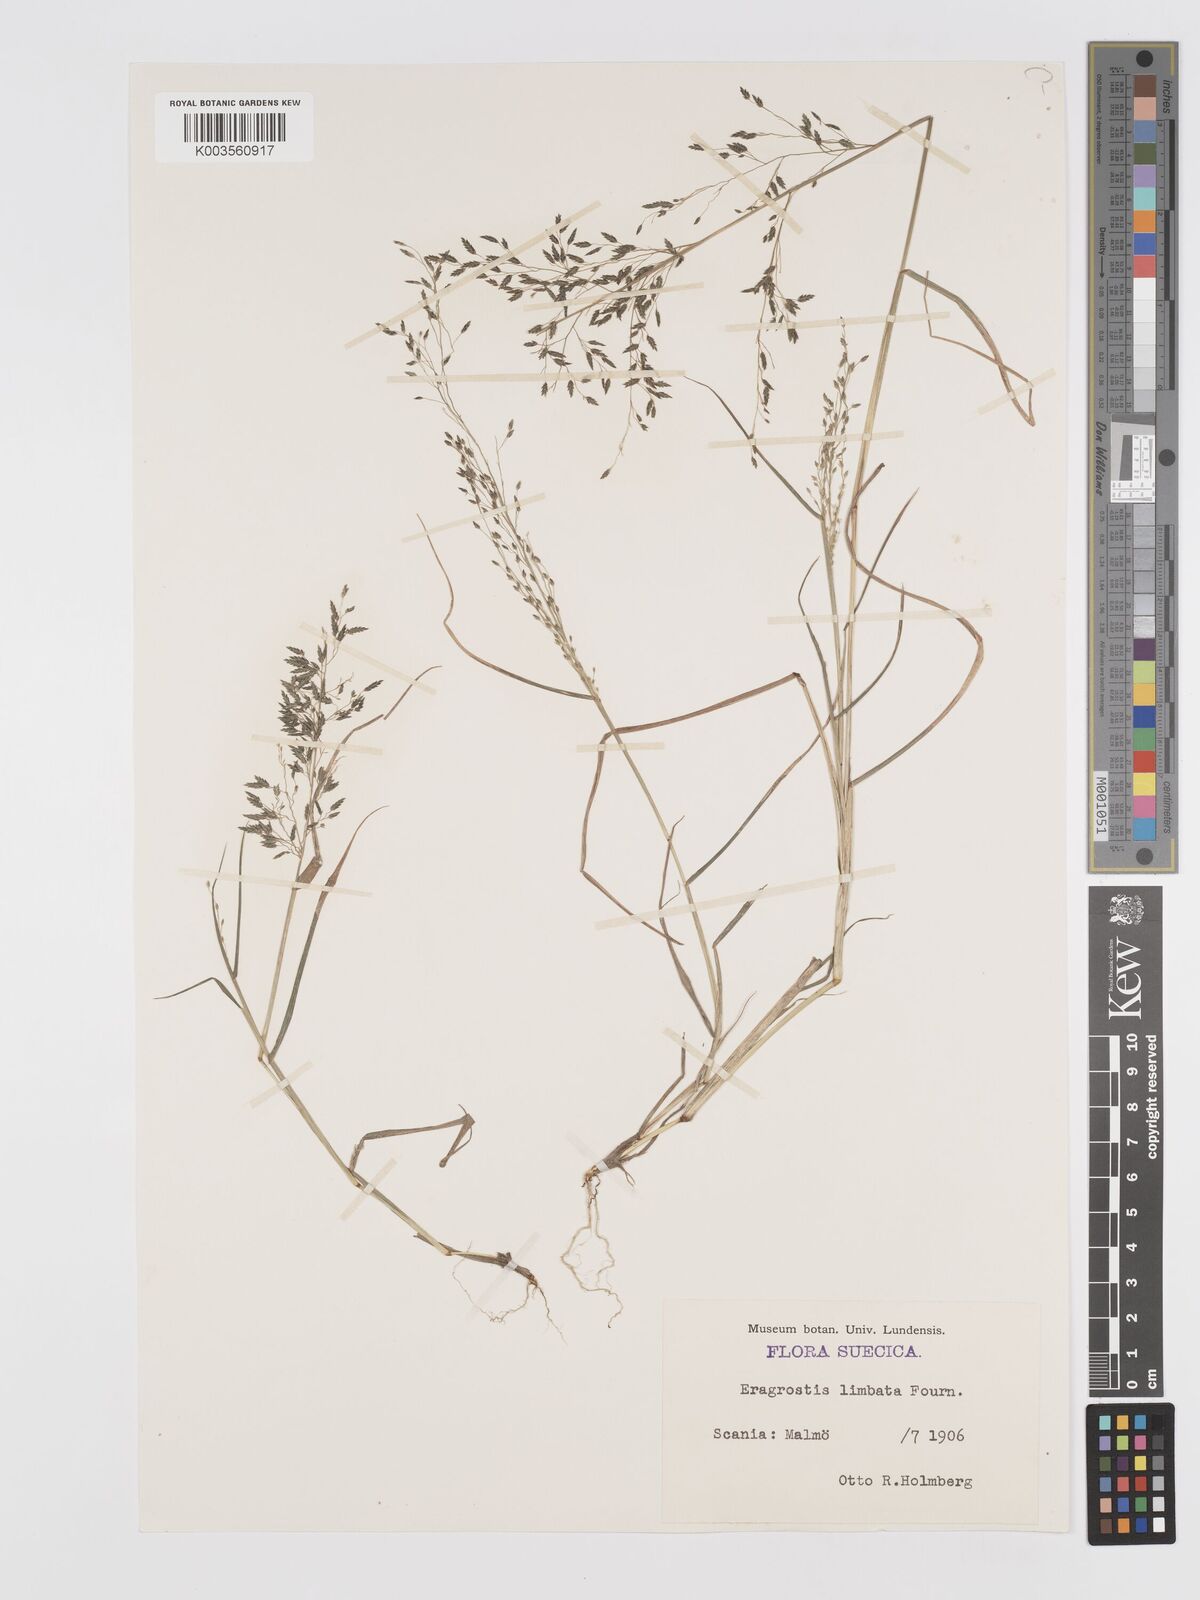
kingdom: Plantae
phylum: Tracheophyta
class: Liliopsida
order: Poales
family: Poaceae
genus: Eragrostis
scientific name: Eragrostis mexicana
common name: Mexican love grass
